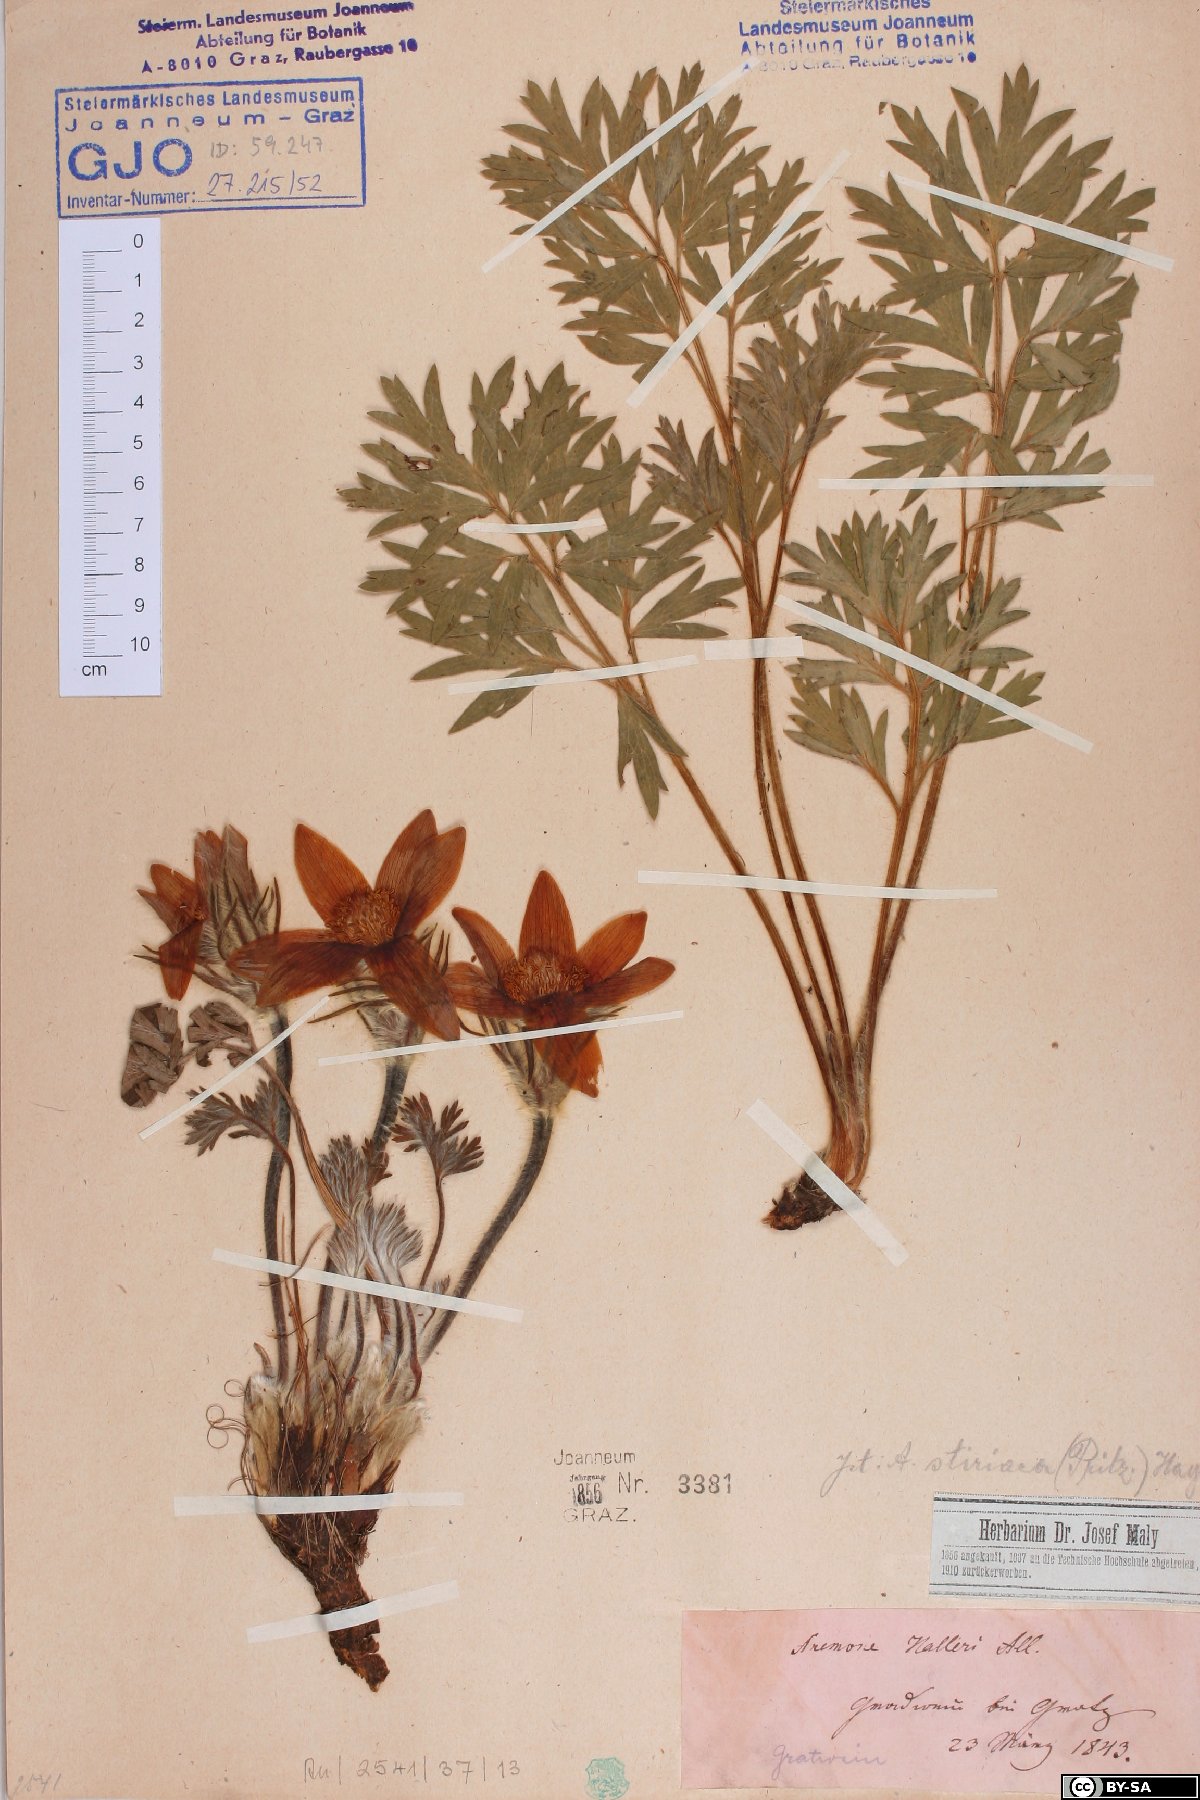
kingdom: Plantae
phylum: Tracheophyta
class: Magnoliopsida
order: Ranunculales
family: Ranunculaceae
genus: Pulsatilla
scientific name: Pulsatilla halleri
